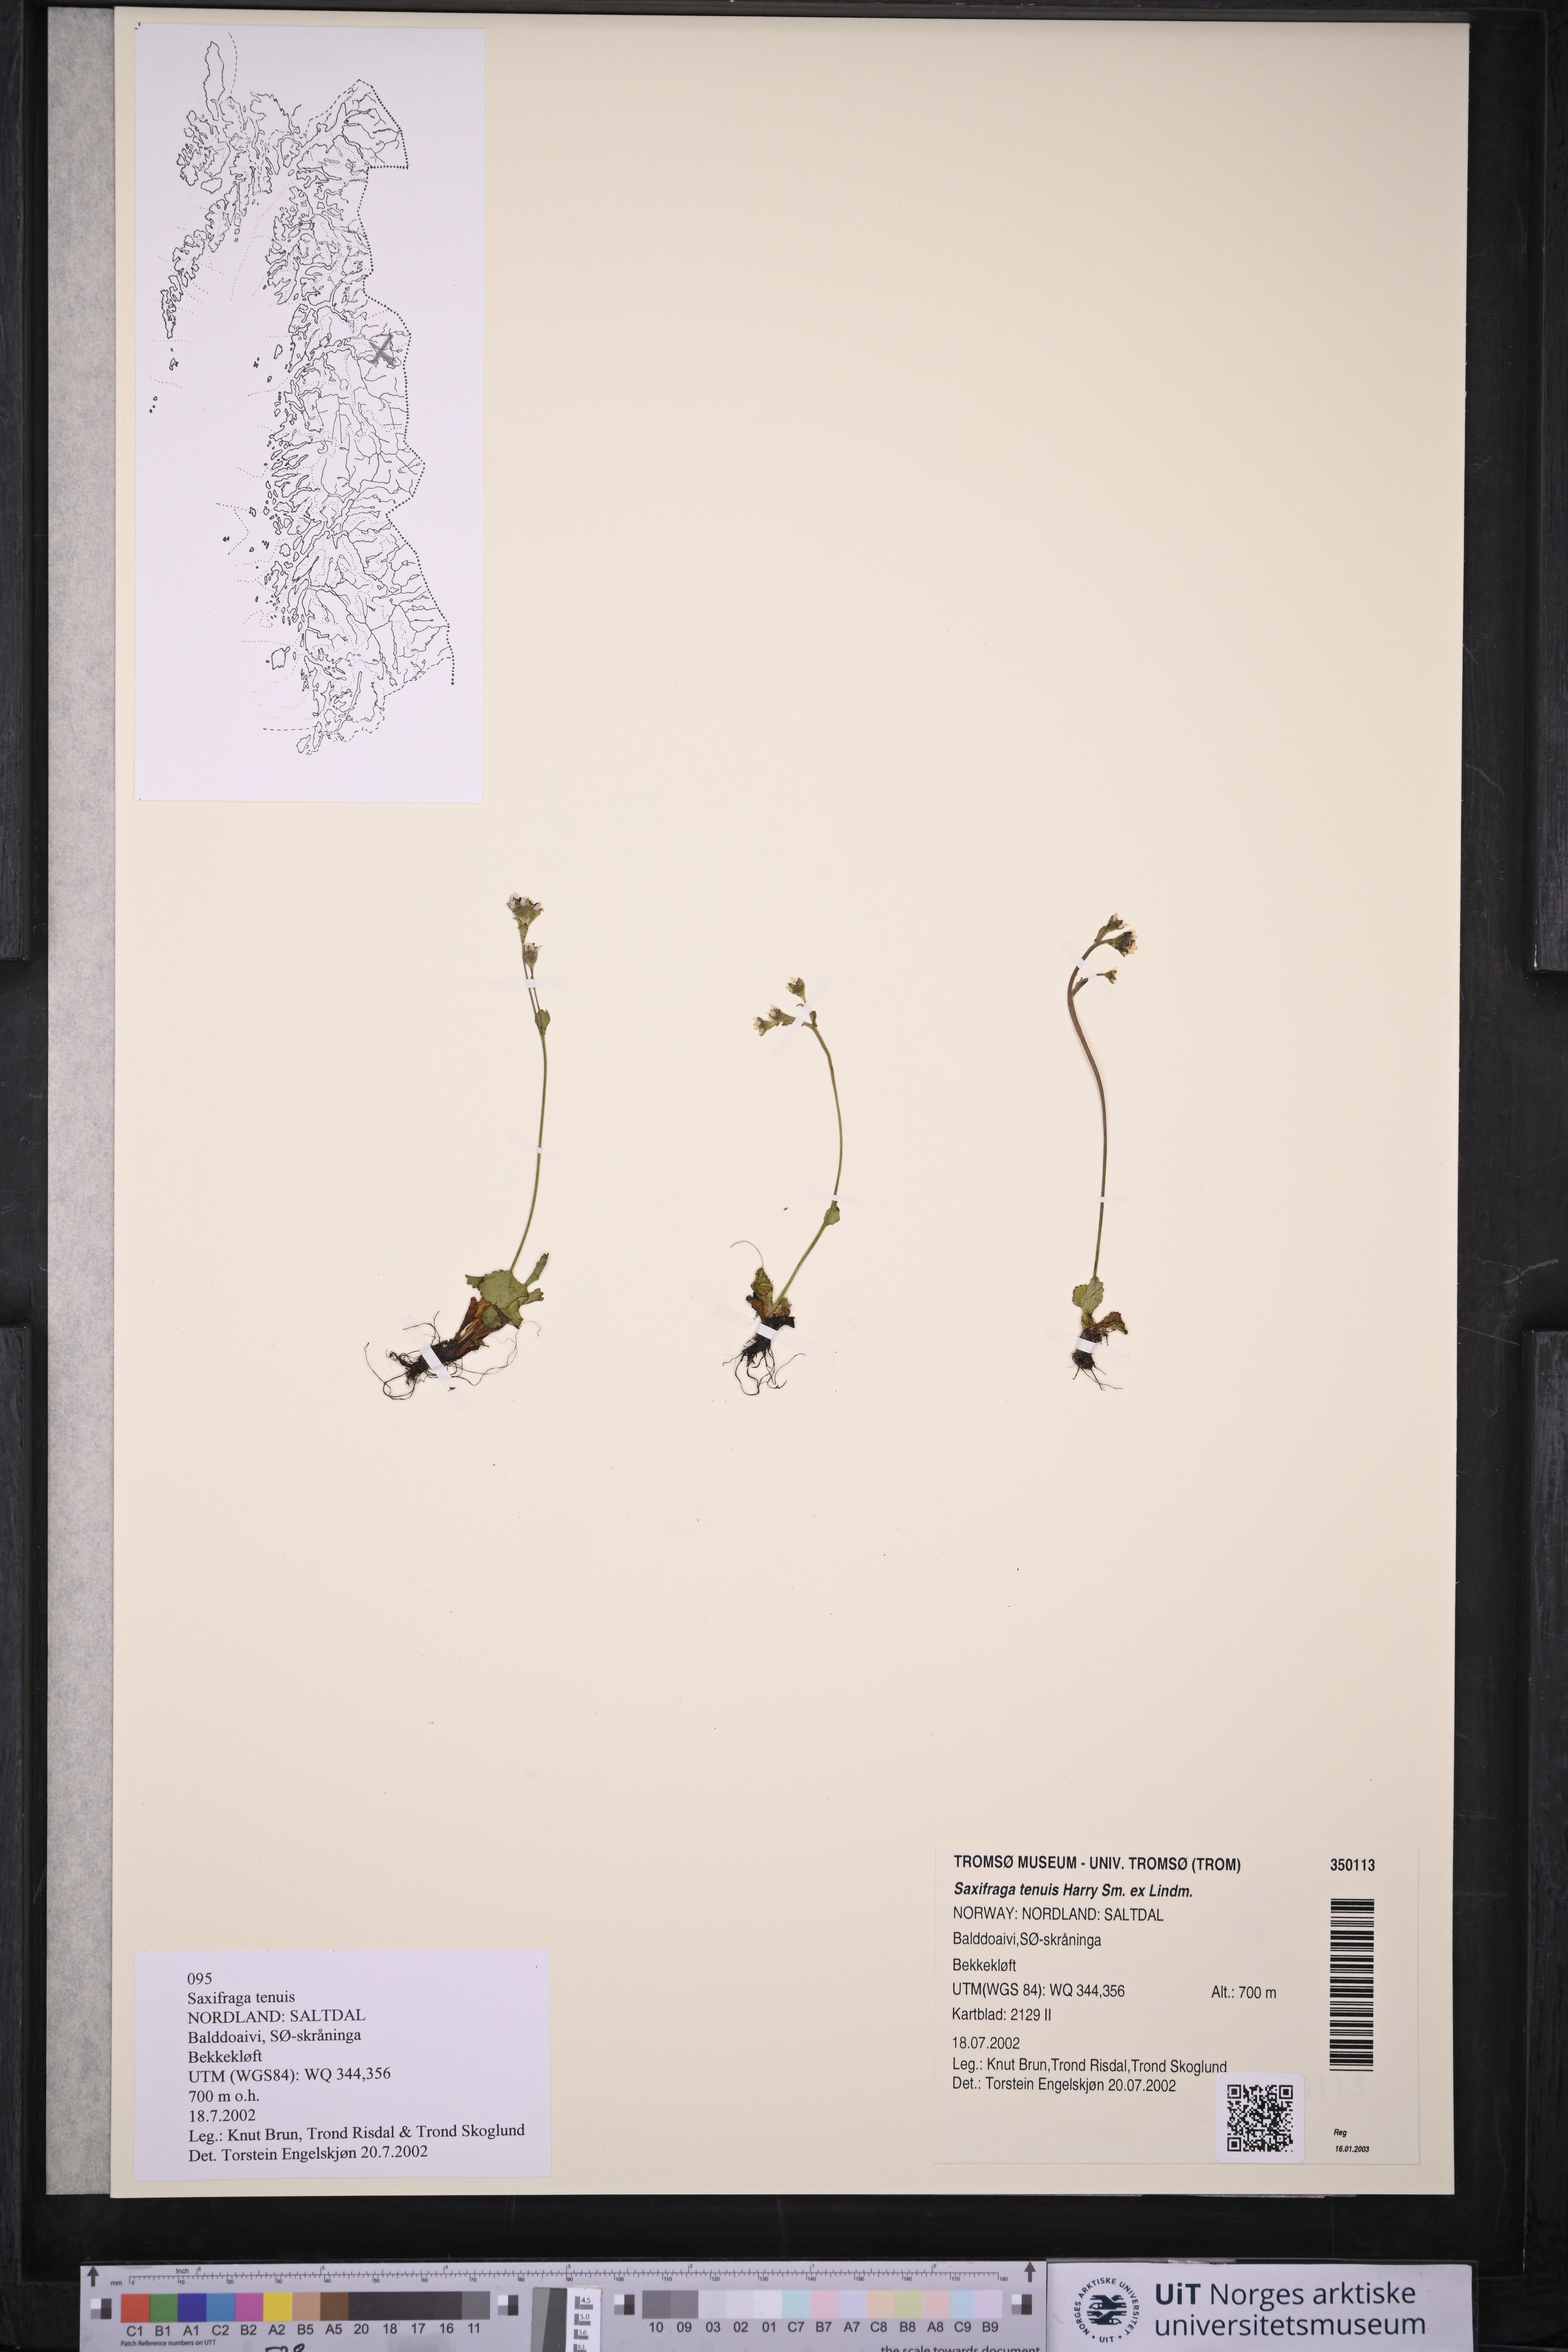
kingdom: Plantae
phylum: Tracheophyta
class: Magnoliopsida
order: Saxifragales
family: Saxifragaceae
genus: Micranthes
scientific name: Micranthes tenuis
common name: Ottertail pass saxifrage
